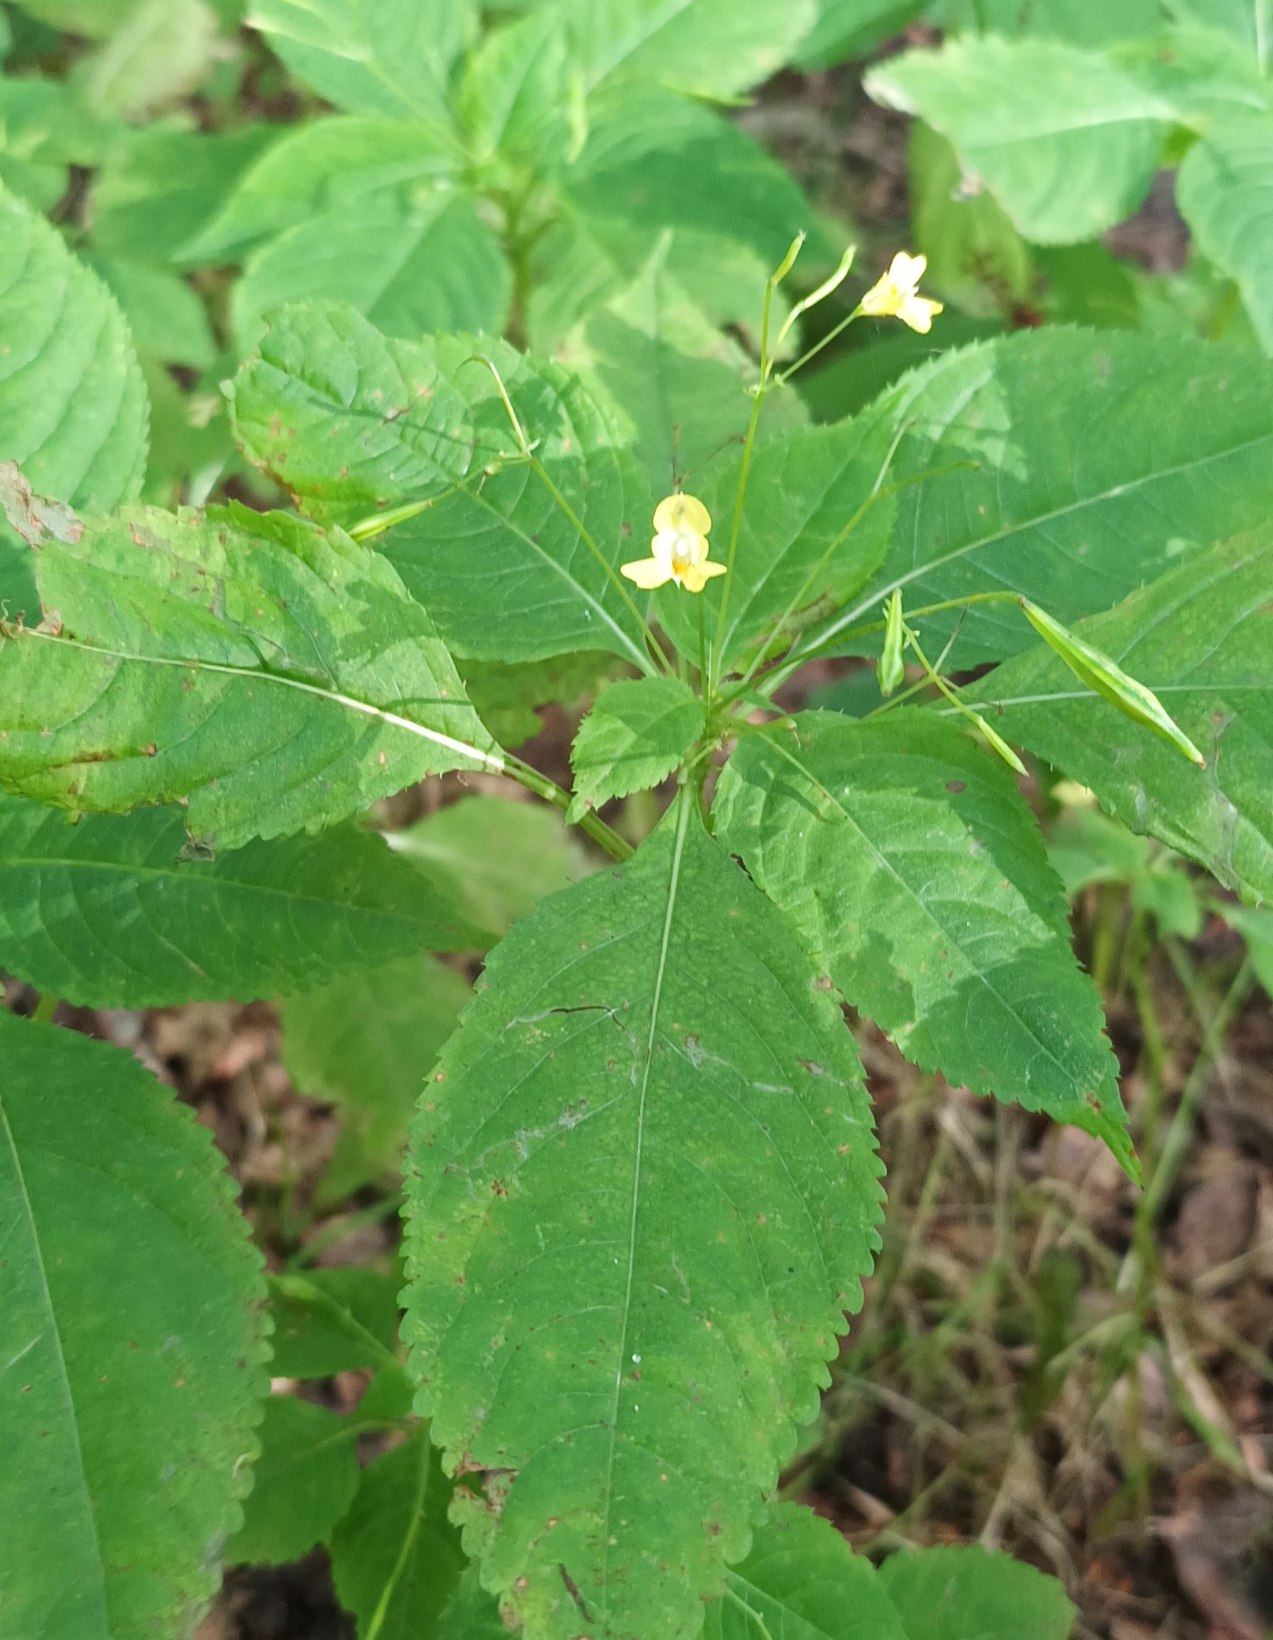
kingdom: Plantae
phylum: Tracheophyta
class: Magnoliopsida
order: Ericales
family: Balsaminaceae
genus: Impatiens
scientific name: Impatiens parviflora
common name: Småblomstret balsamin
